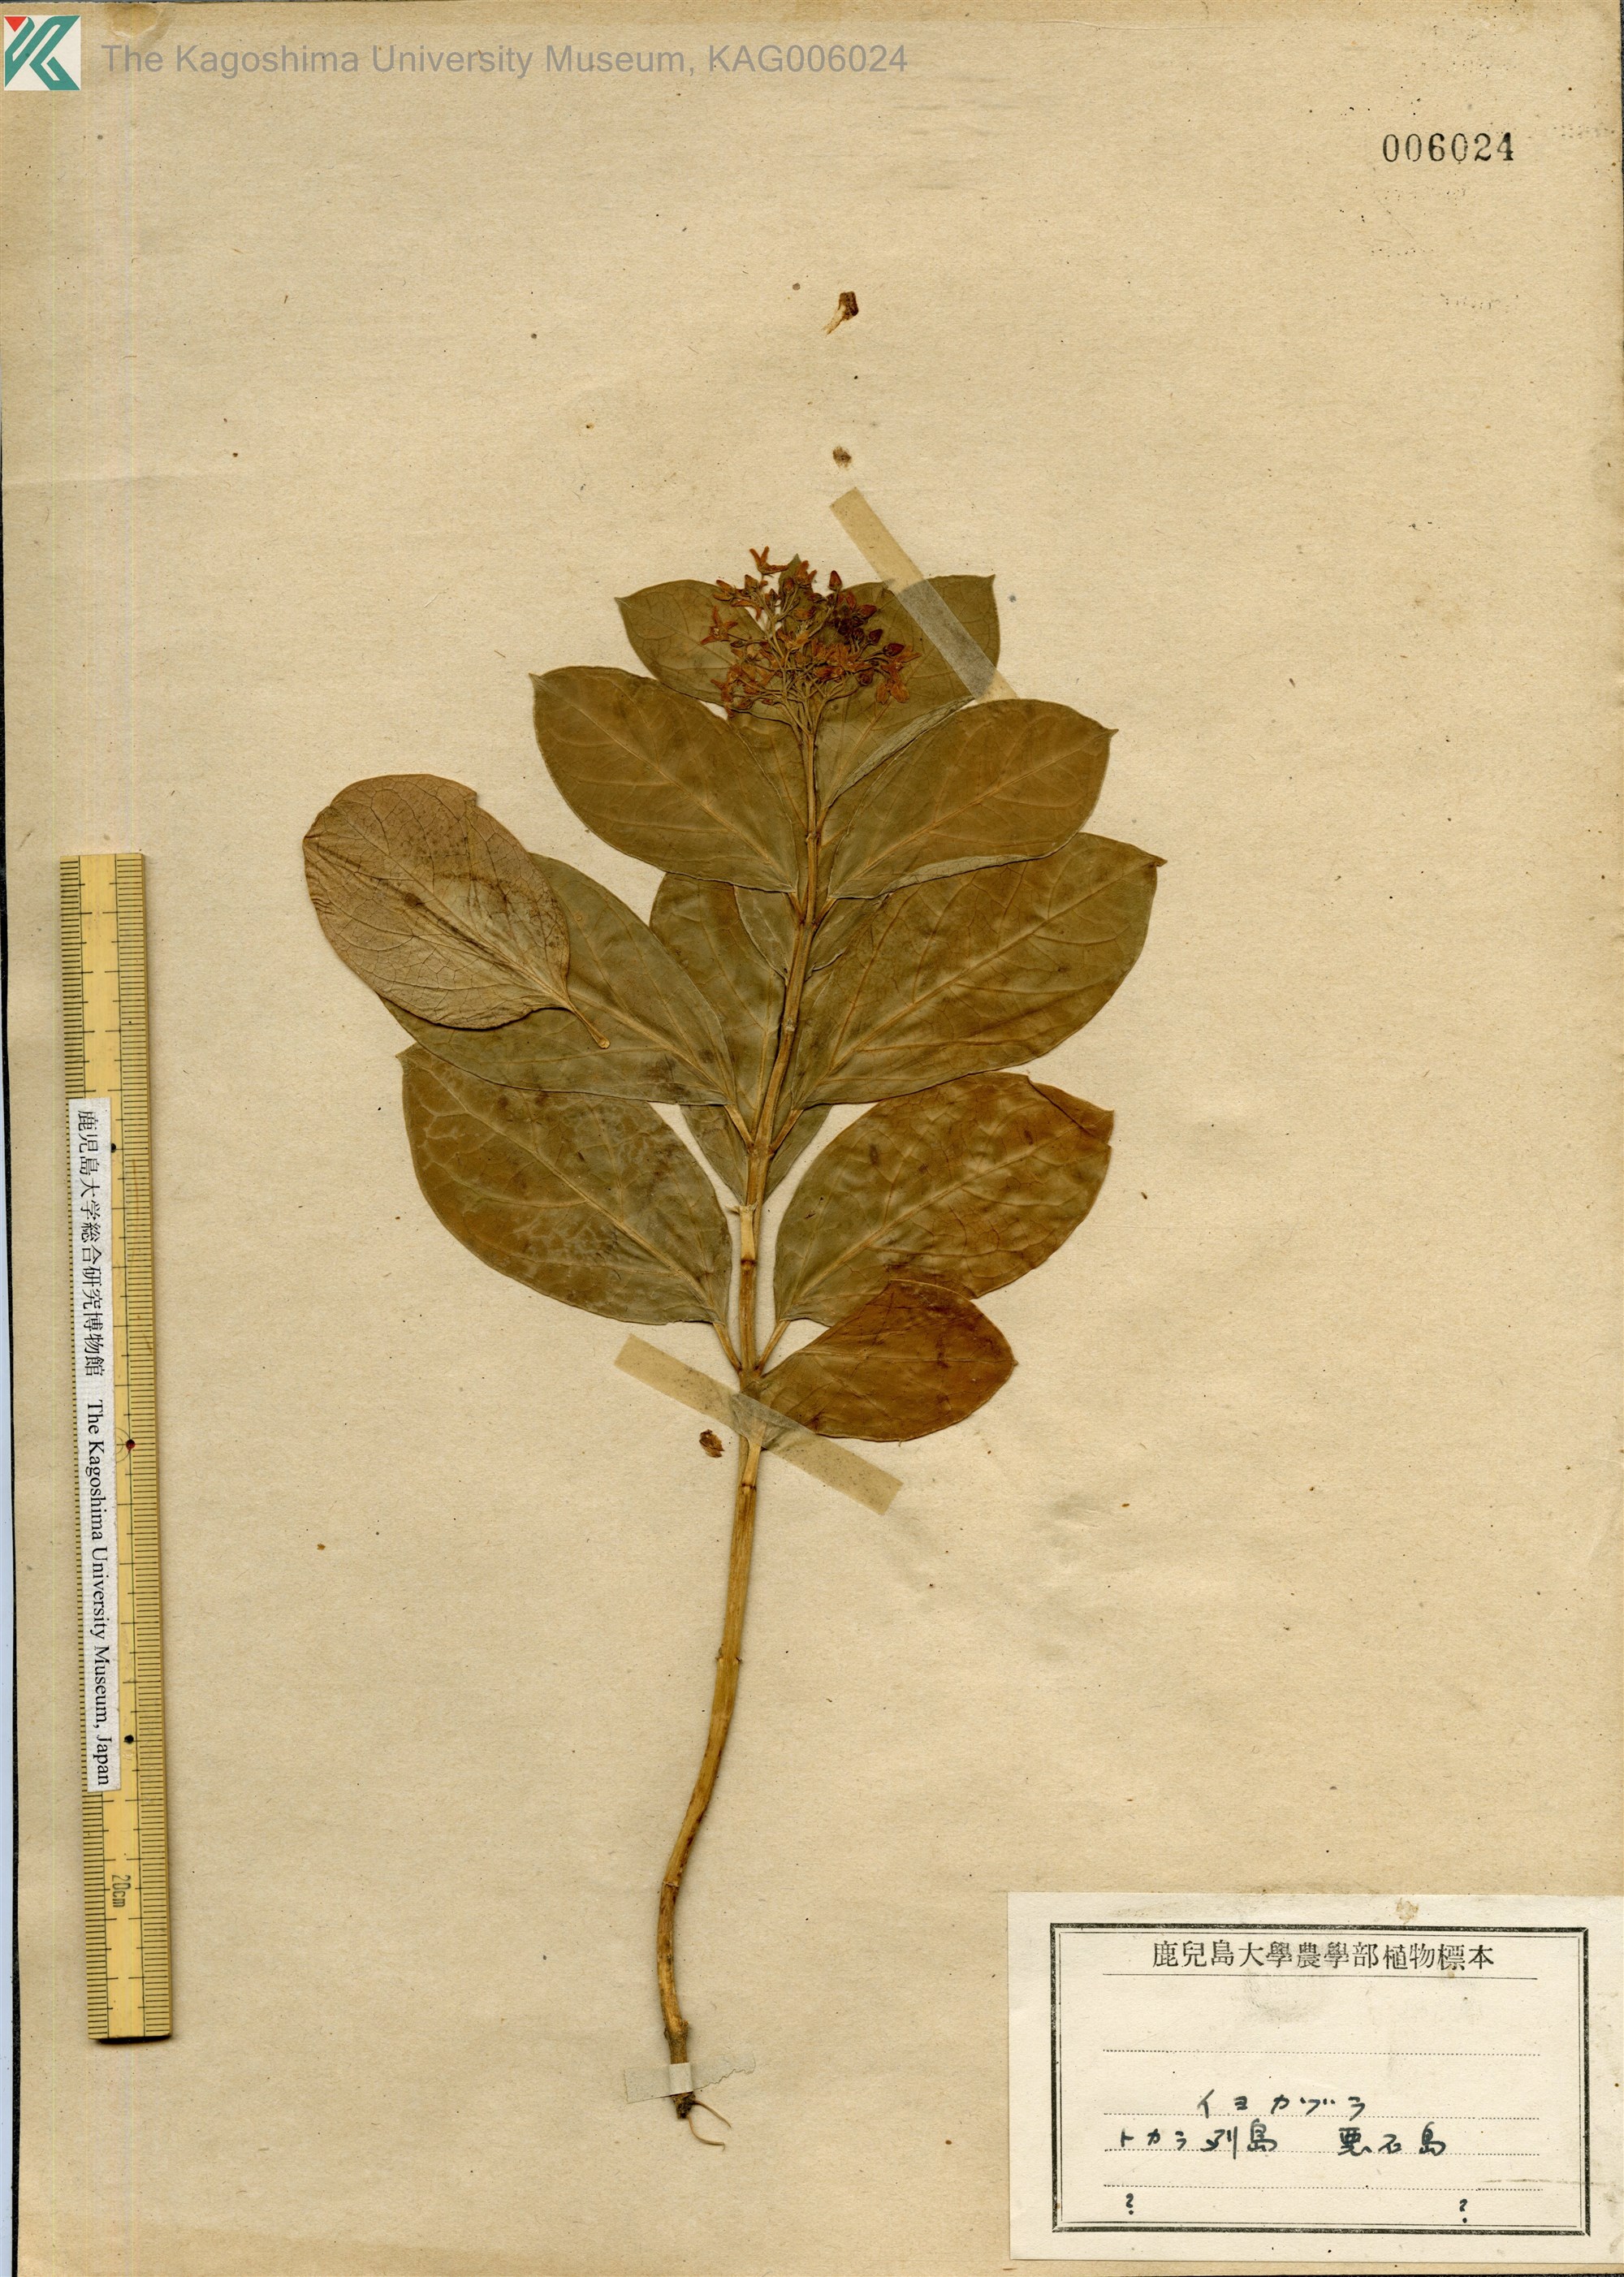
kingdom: Plantae
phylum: Tracheophyta
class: Magnoliopsida
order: Gentianales
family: Apocynaceae
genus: Vincetoxicum
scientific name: Vincetoxicum japonicum
